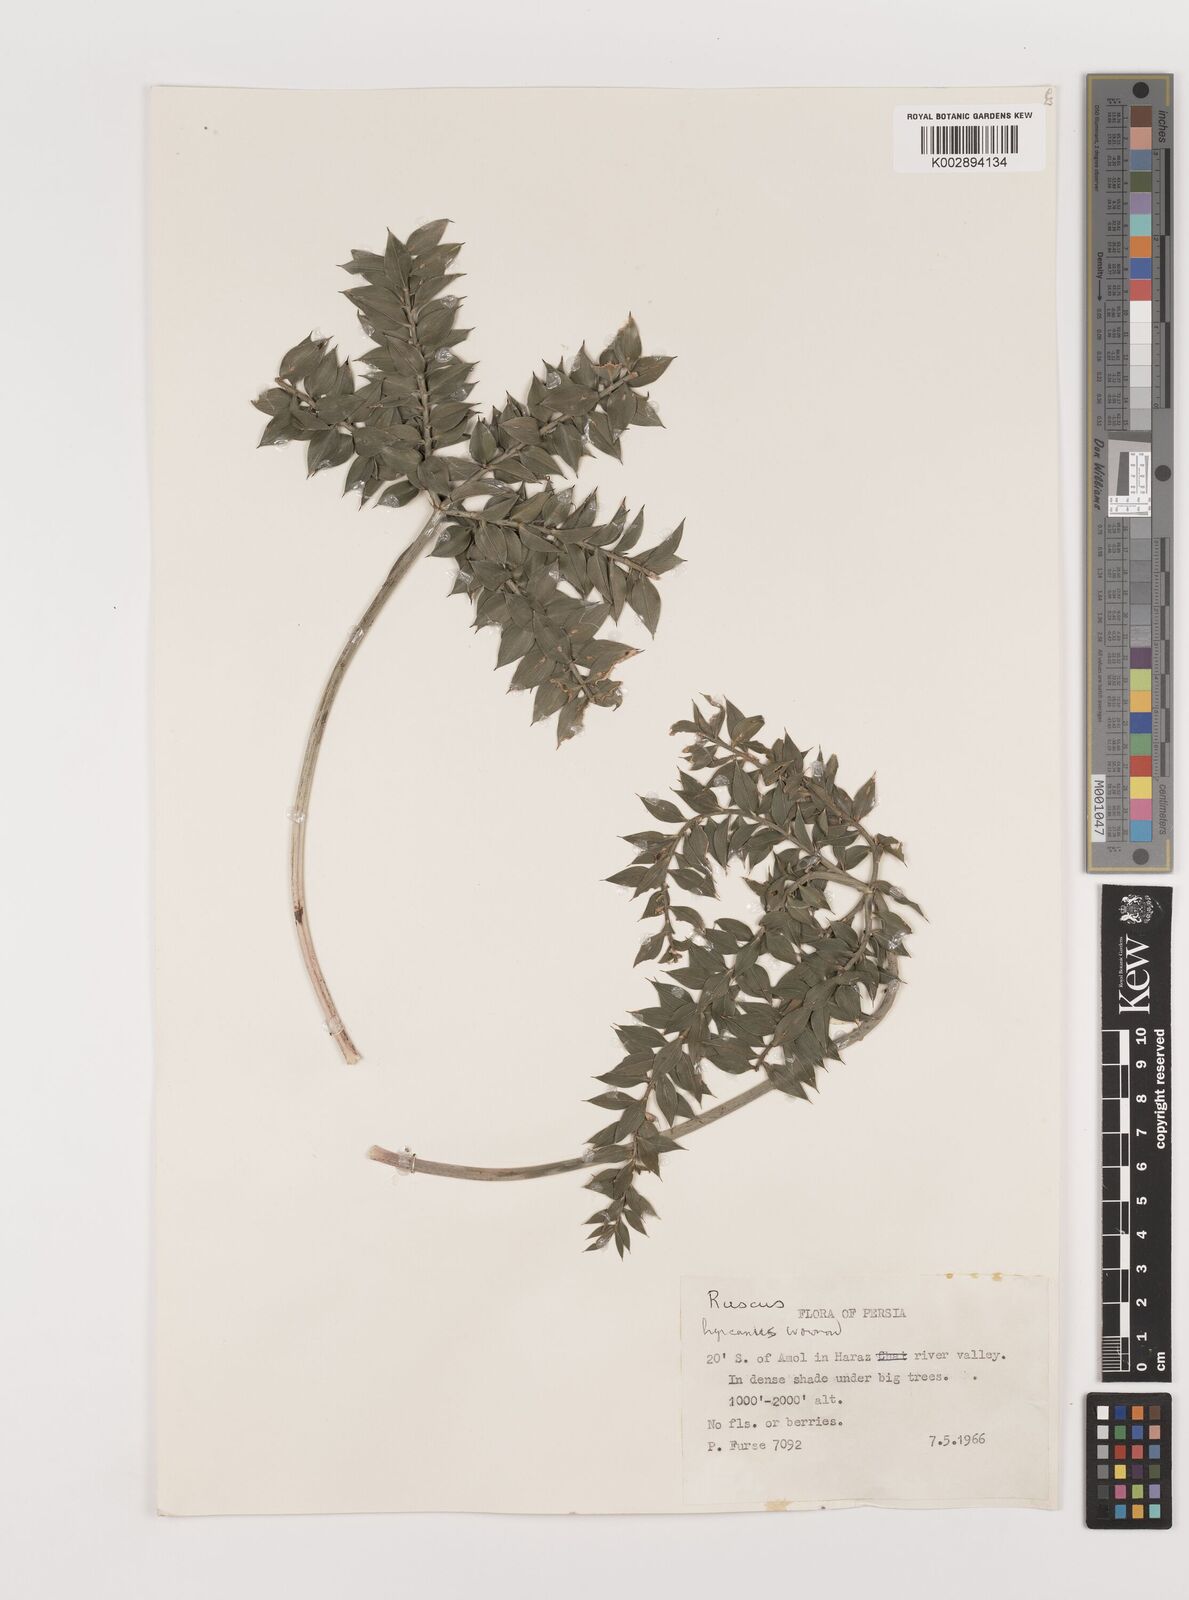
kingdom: Plantae
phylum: Tracheophyta
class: Liliopsida
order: Asparagales
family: Asparagaceae
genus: Ruscus
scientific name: Ruscus hyrcanus
